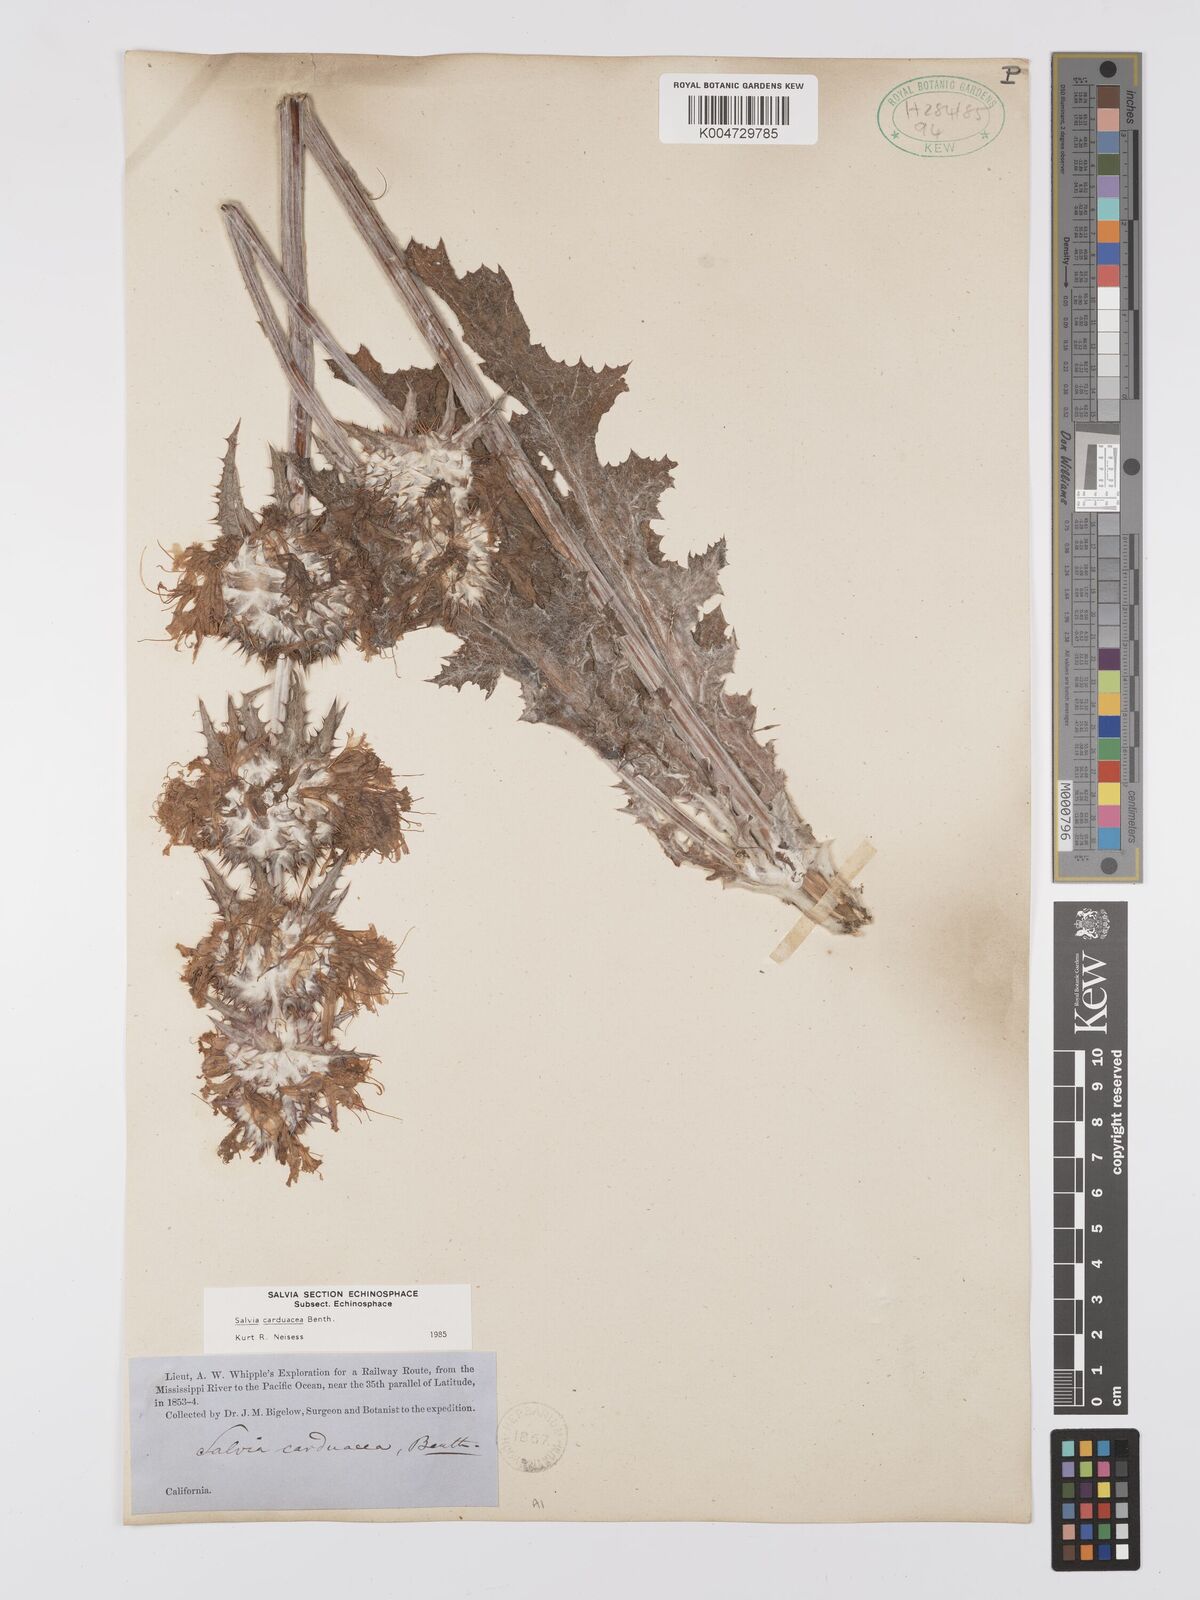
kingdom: Plantae
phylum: Tracheophyta
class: Magnoliopsida
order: Lamiales
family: Lamiaceae
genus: Salvia
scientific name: Salvia carduacea
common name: Thistle sage
